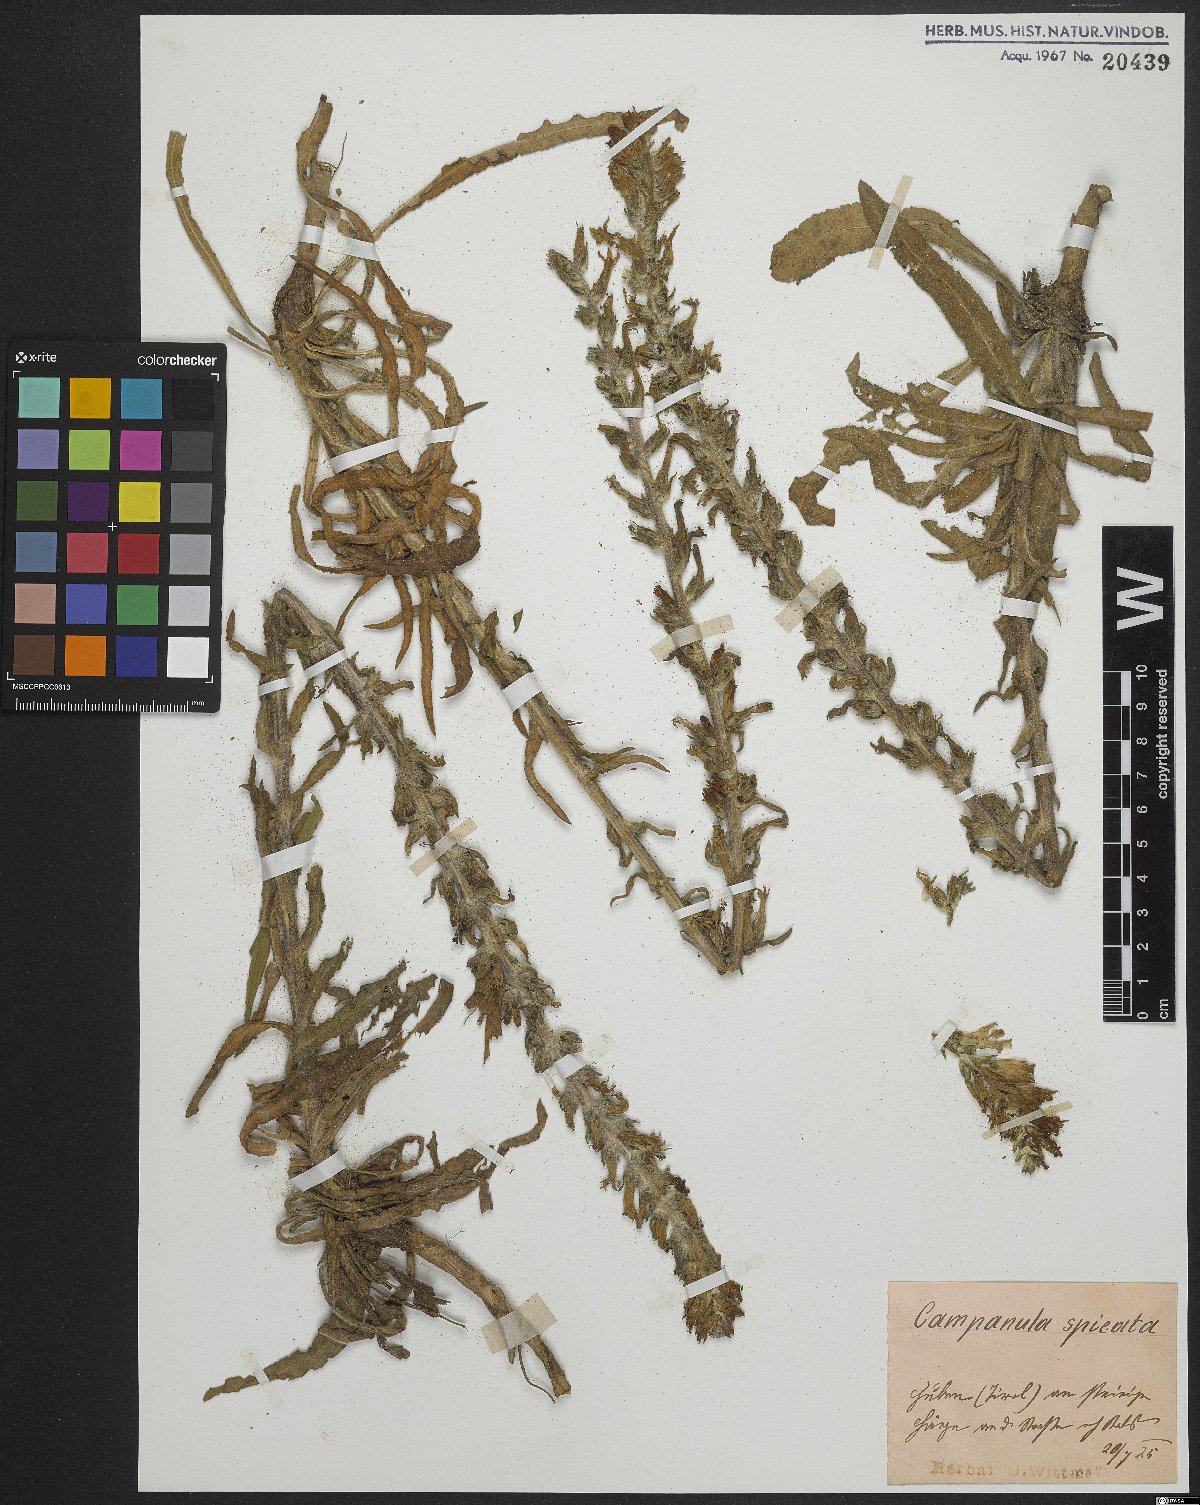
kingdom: Plantae
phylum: Tracheophyta
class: Magnoliopsida
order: Asterales
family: Campanulaceae
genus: Campanula
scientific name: Campanula spicata
